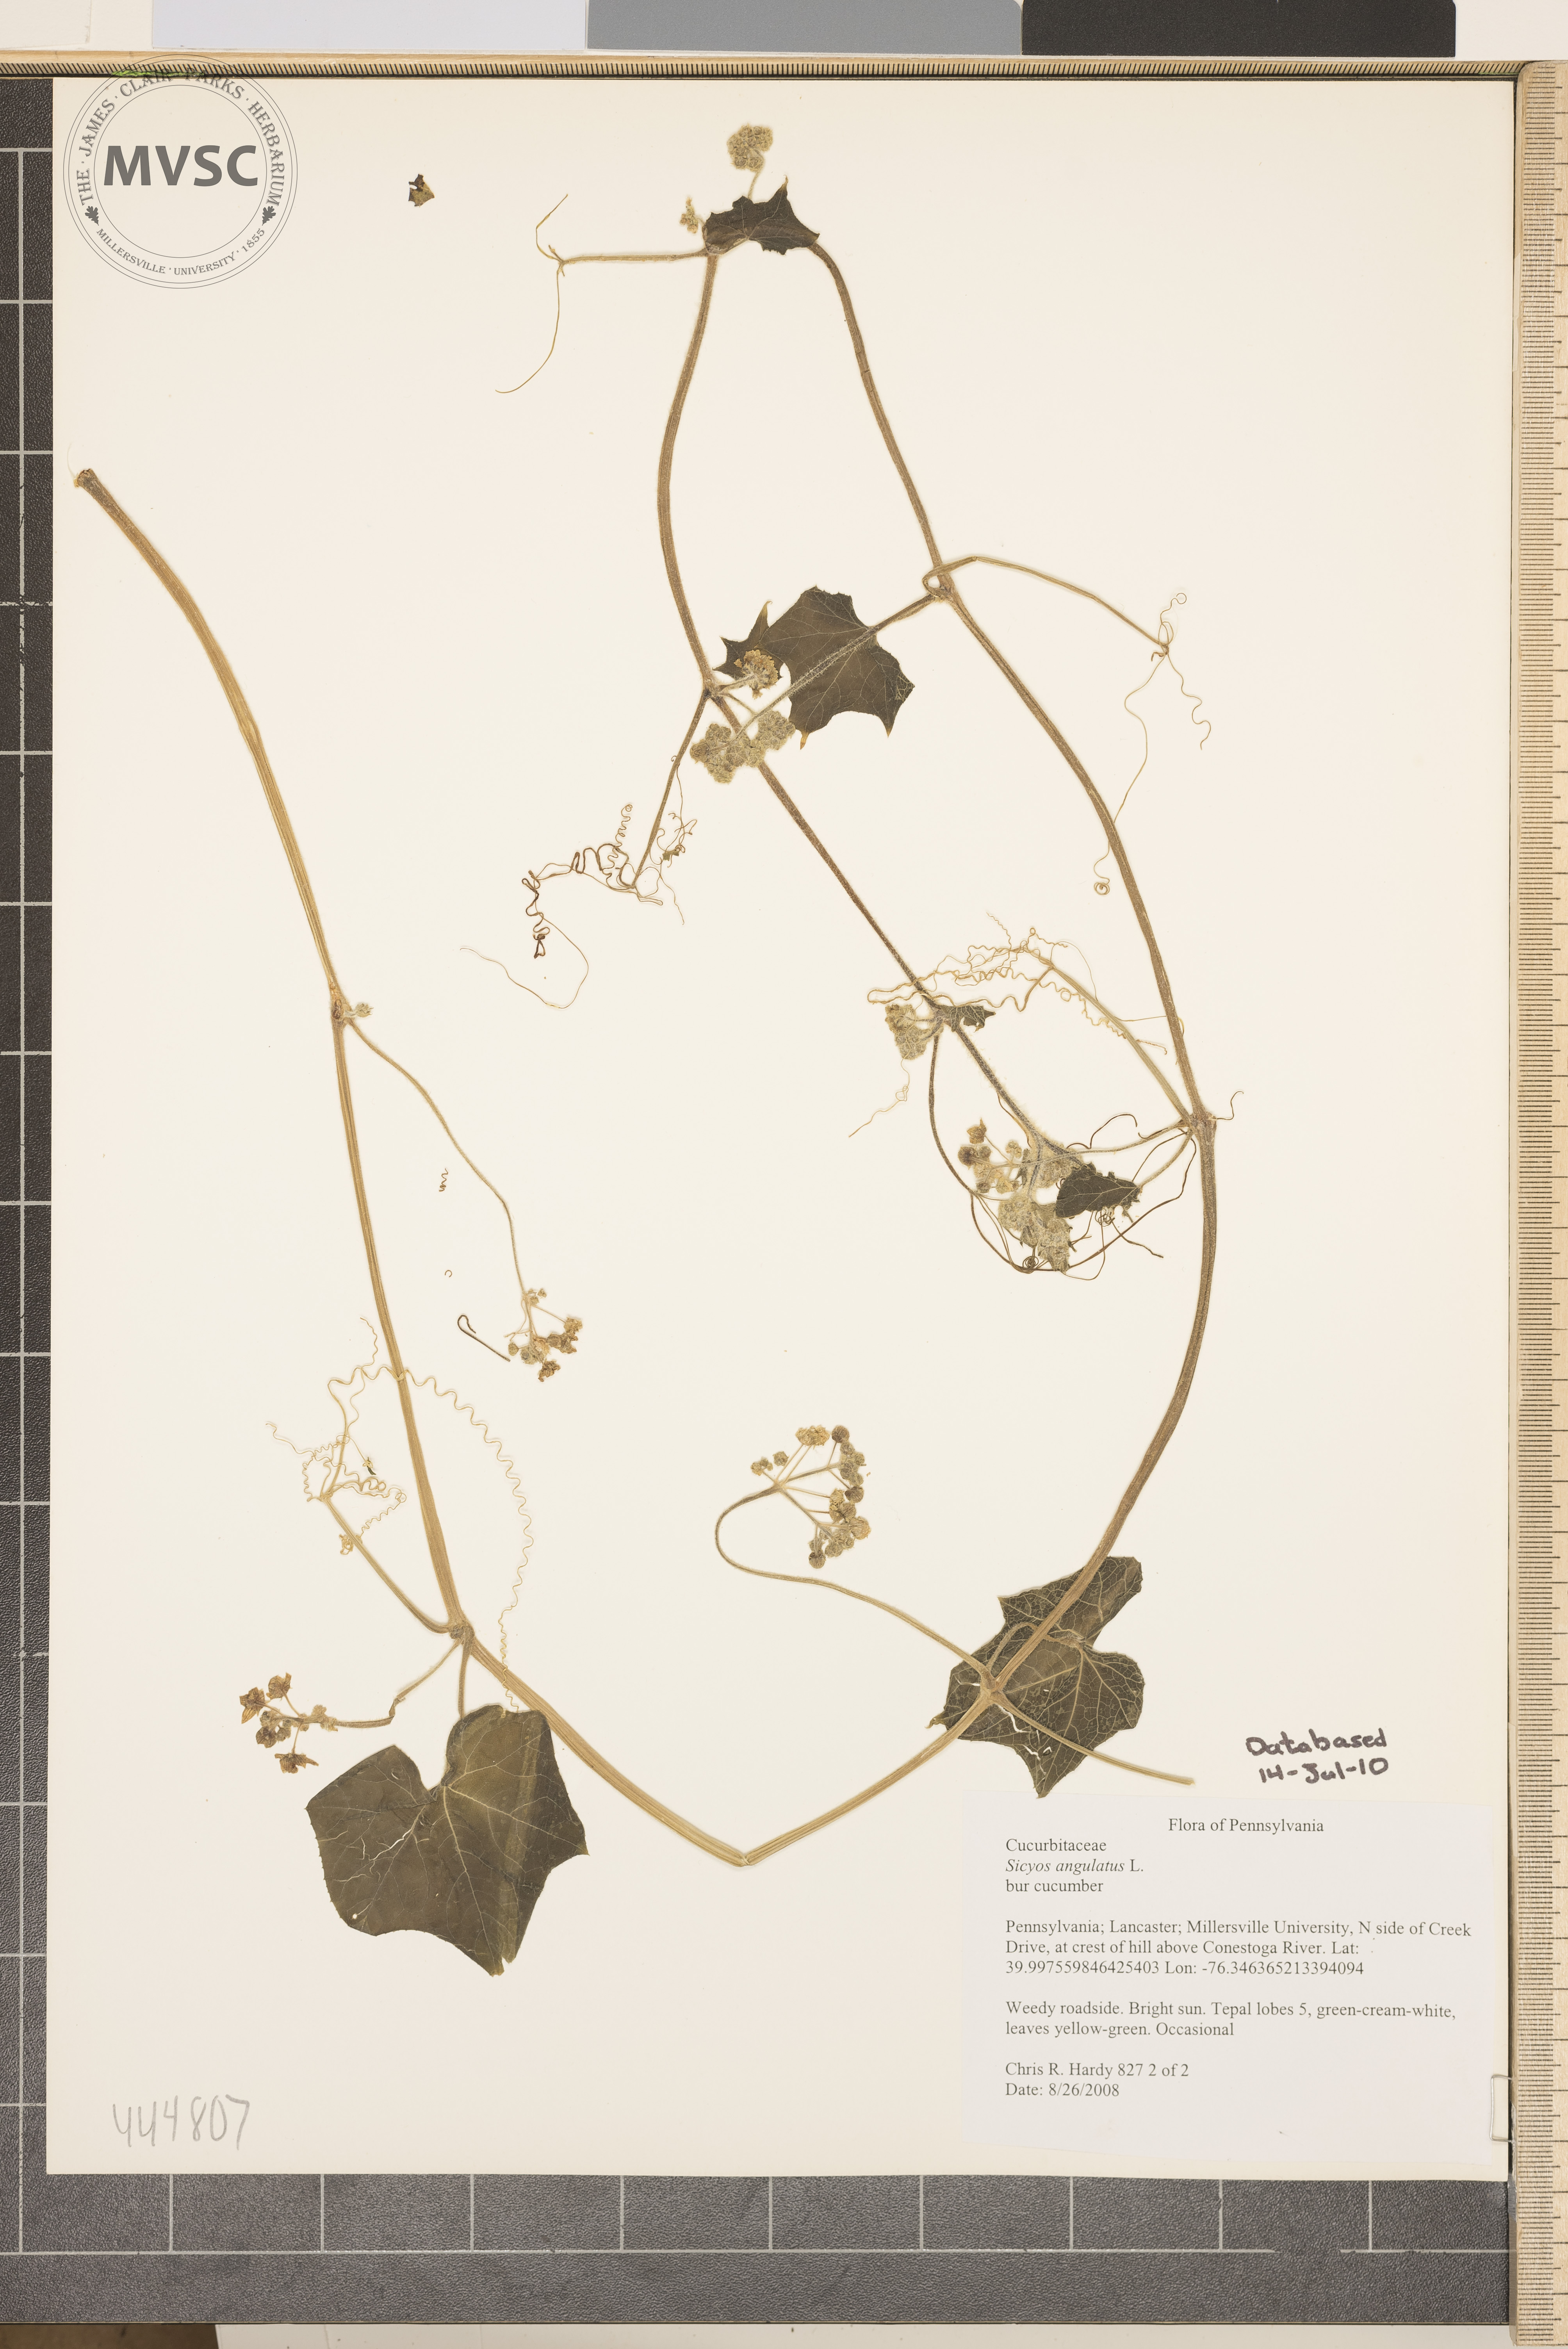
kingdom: Plantae
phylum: Tracheophyta
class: Magnoliopsida
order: Cucurbitales
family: Cucurbitaceae
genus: Sicyos
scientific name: Sicyos angulatus
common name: Bur cucumber
